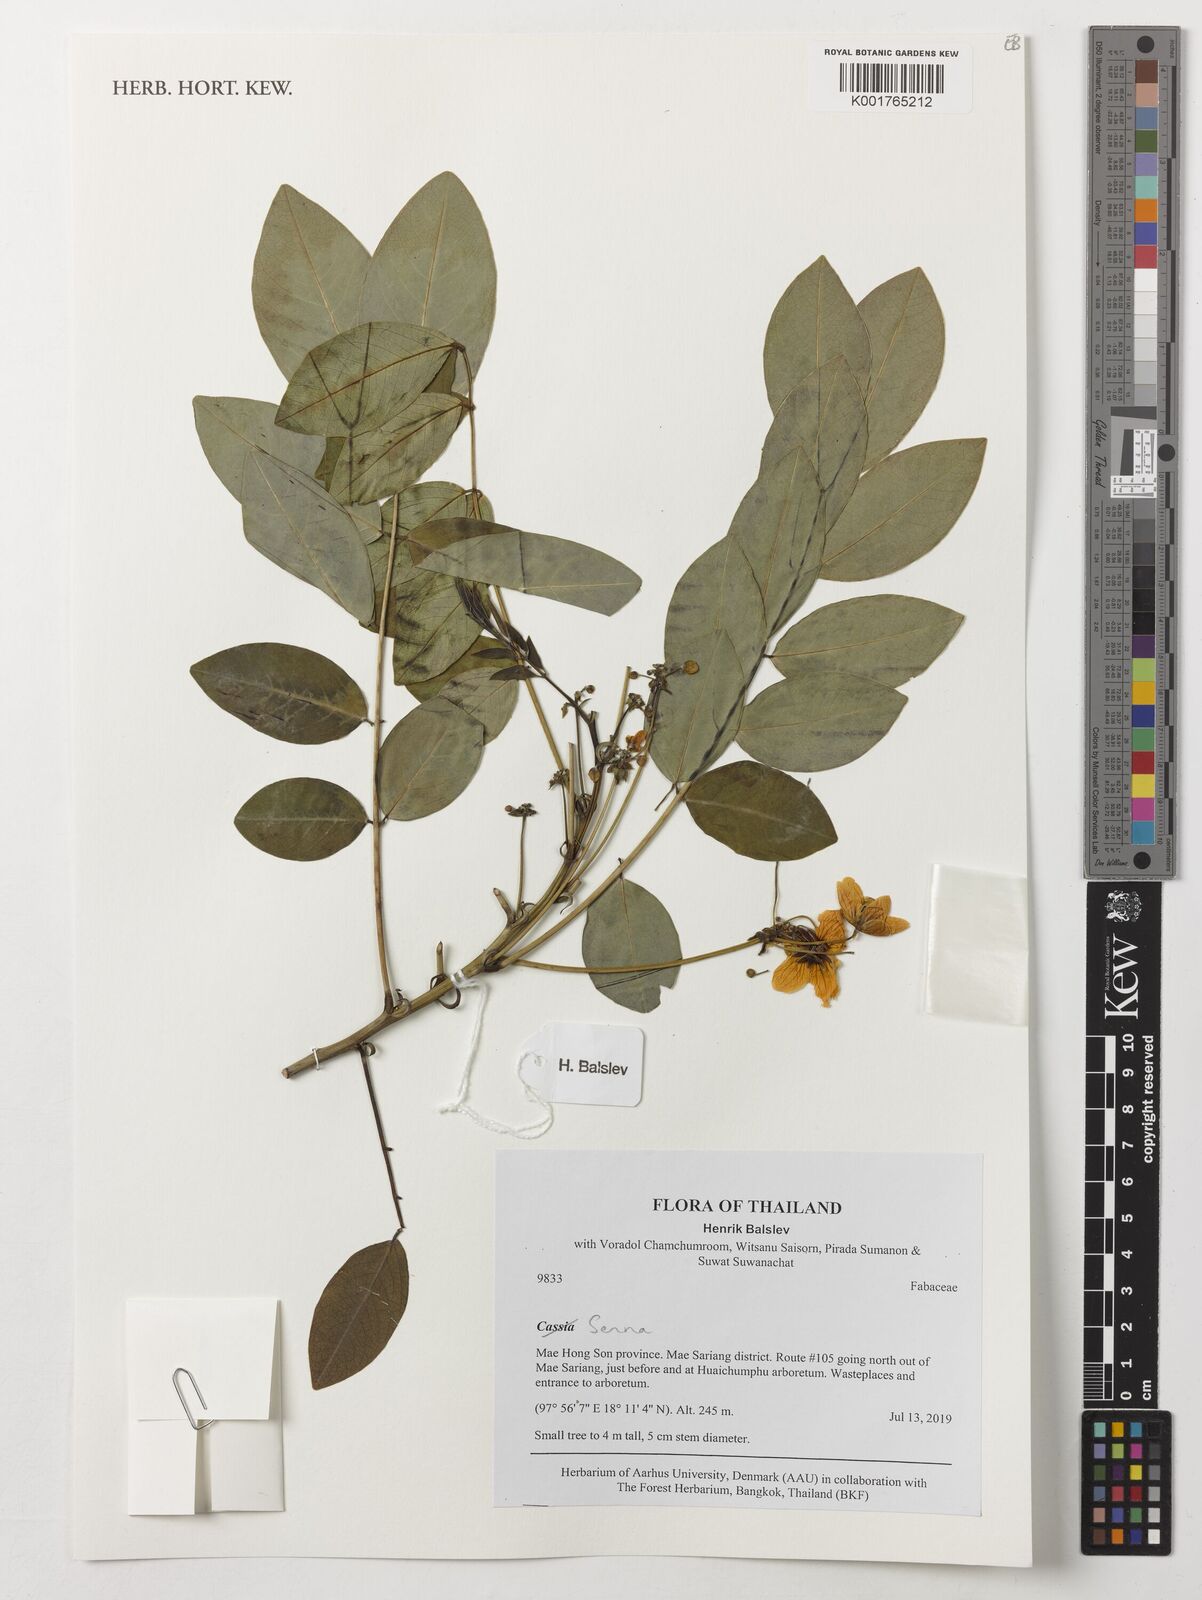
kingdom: Plantae
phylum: Tracheophyta
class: Magnoliopsida
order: Fabales
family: Fabaceae
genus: Senna
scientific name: Senna
